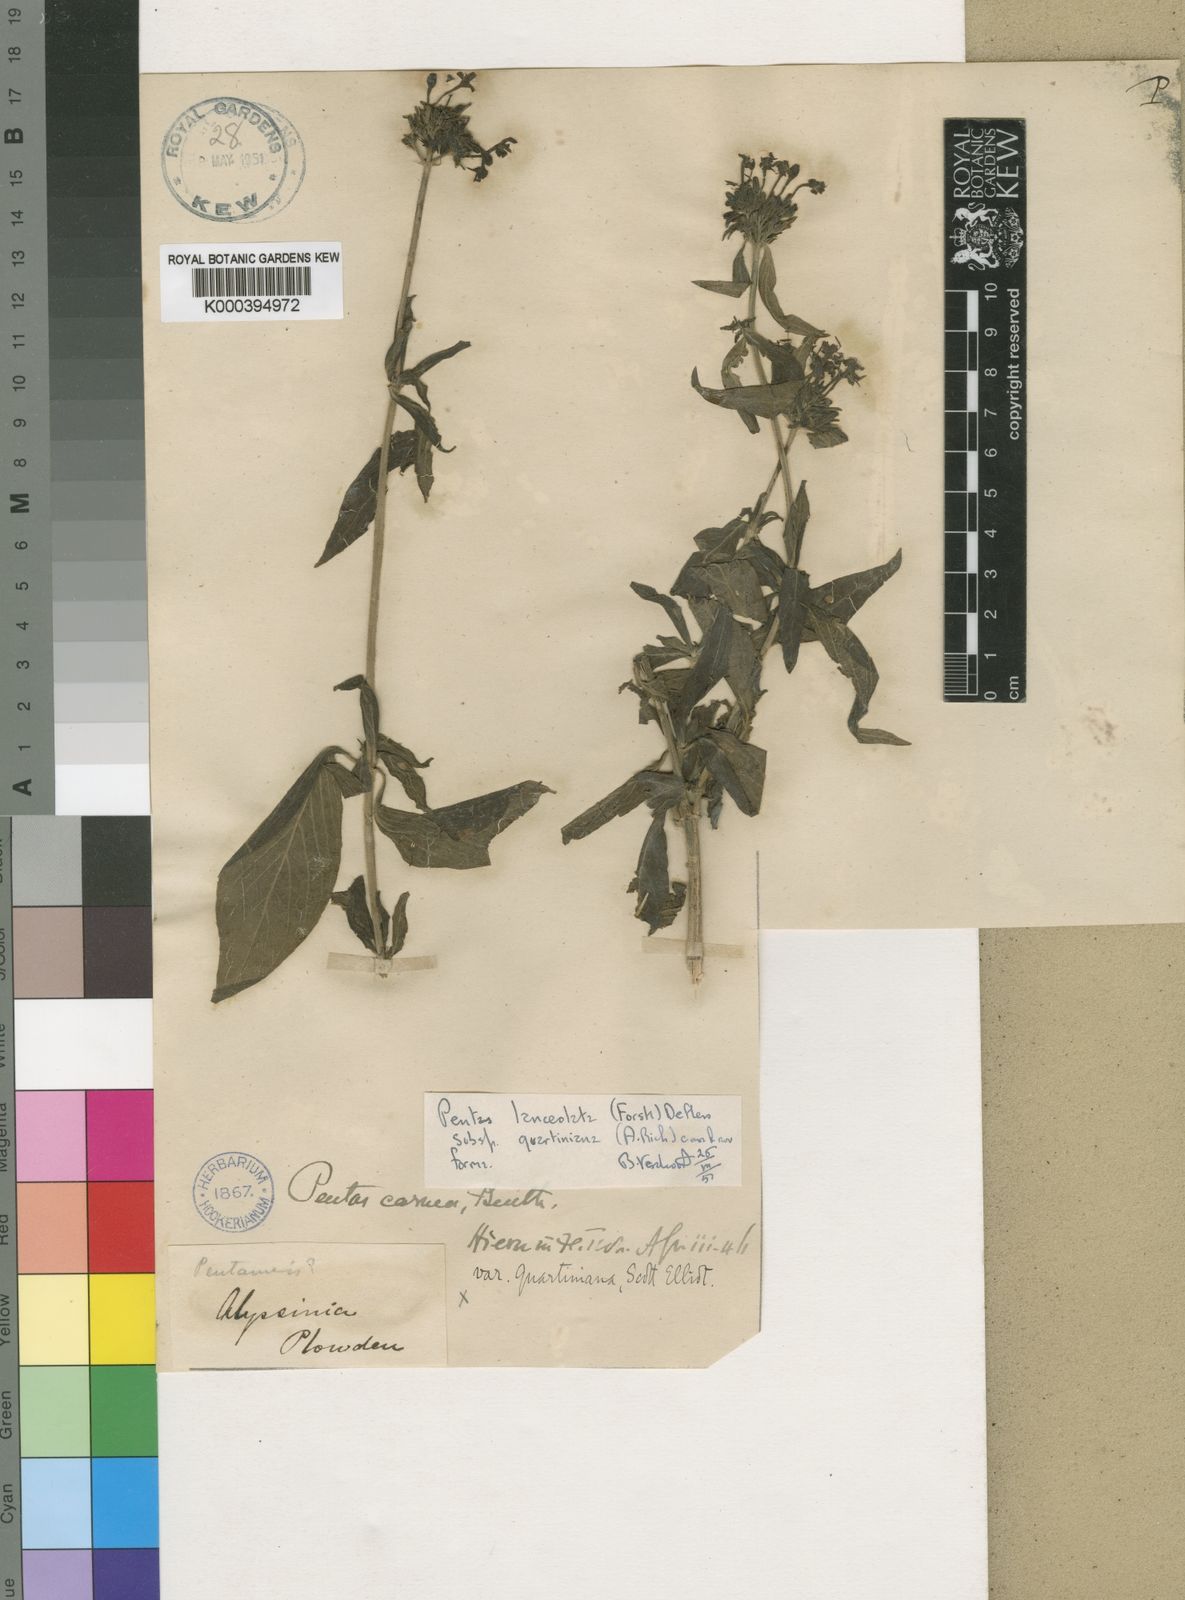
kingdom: Plantae
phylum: Tracheophyta
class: Magnoliopsida
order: Gentianales
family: Rubiaceae
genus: Pentas
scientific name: Pentas lanceolata
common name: Egyptian starcluster
